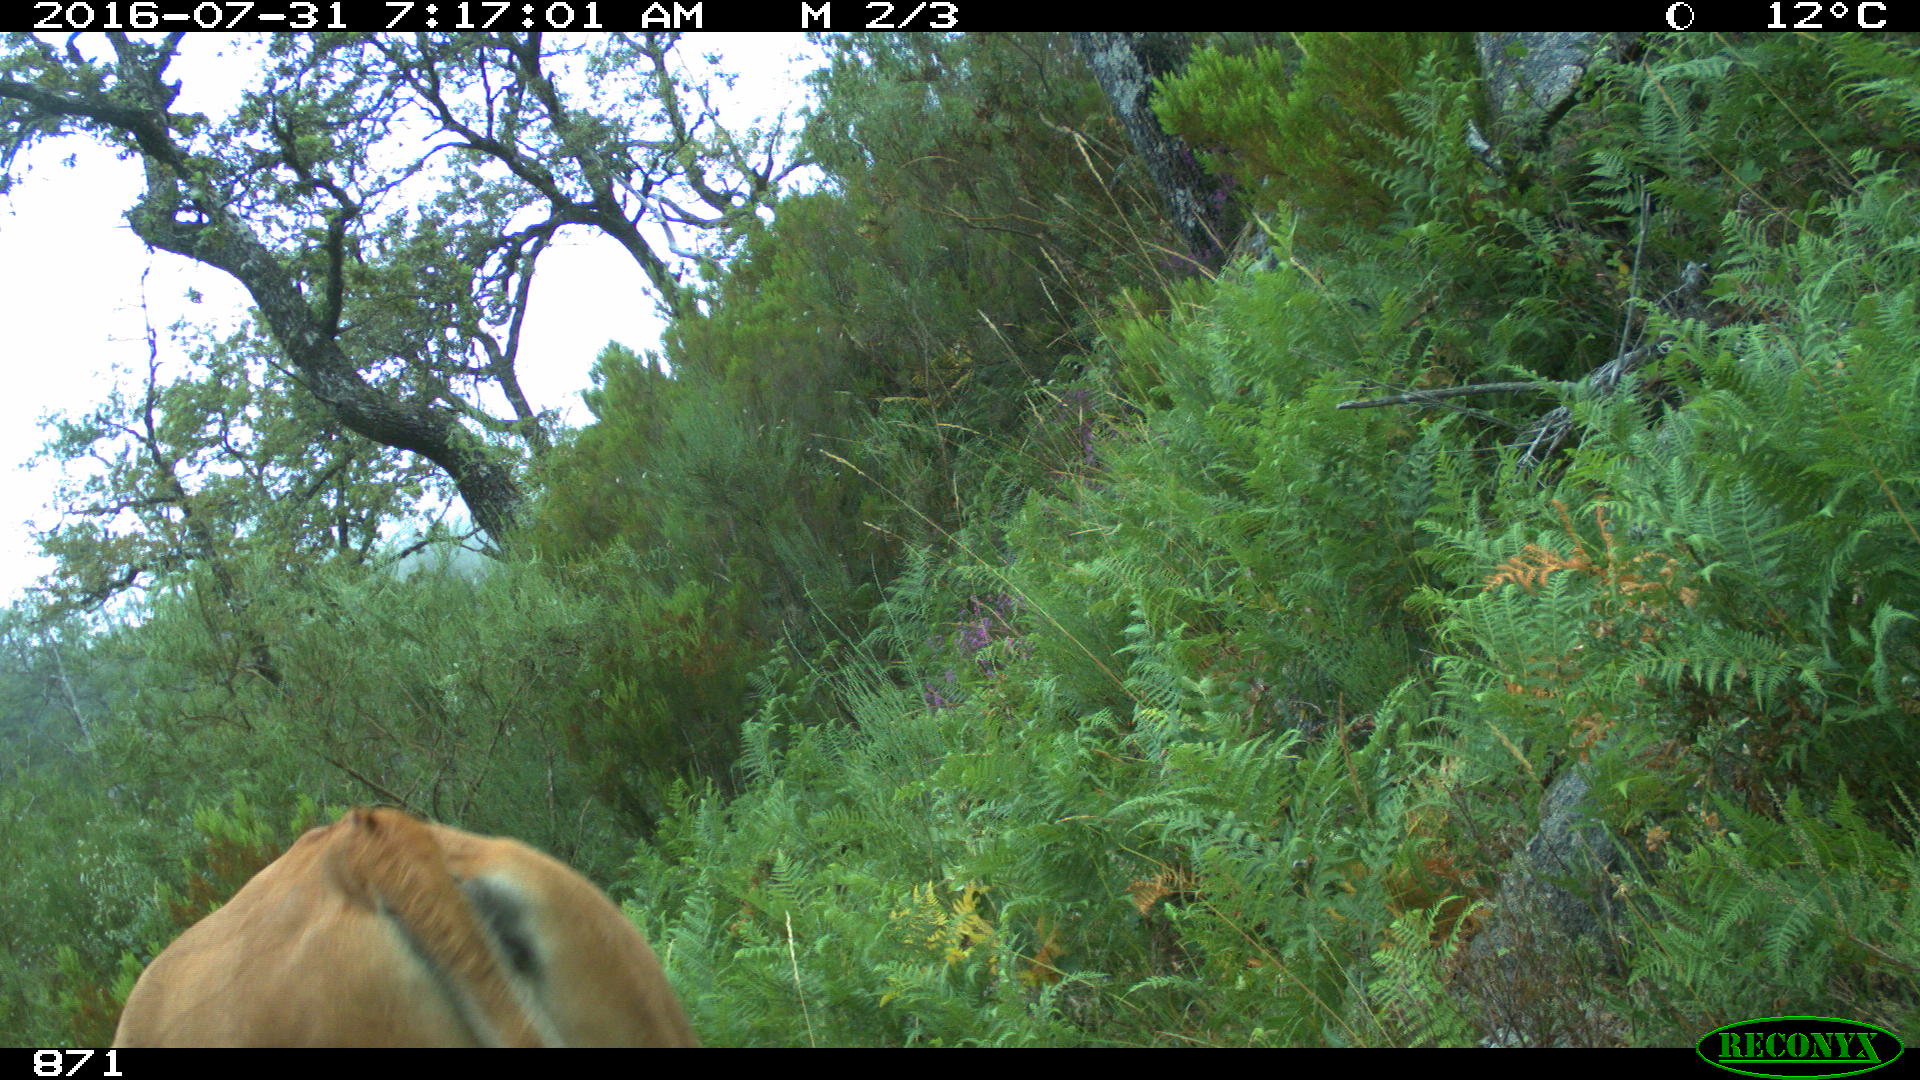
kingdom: Animalia
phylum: Chordata
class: Mammalia
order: Artiodactyla
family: Bovidae
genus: Bos
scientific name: Bos taurus
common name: Domesticated cattle
